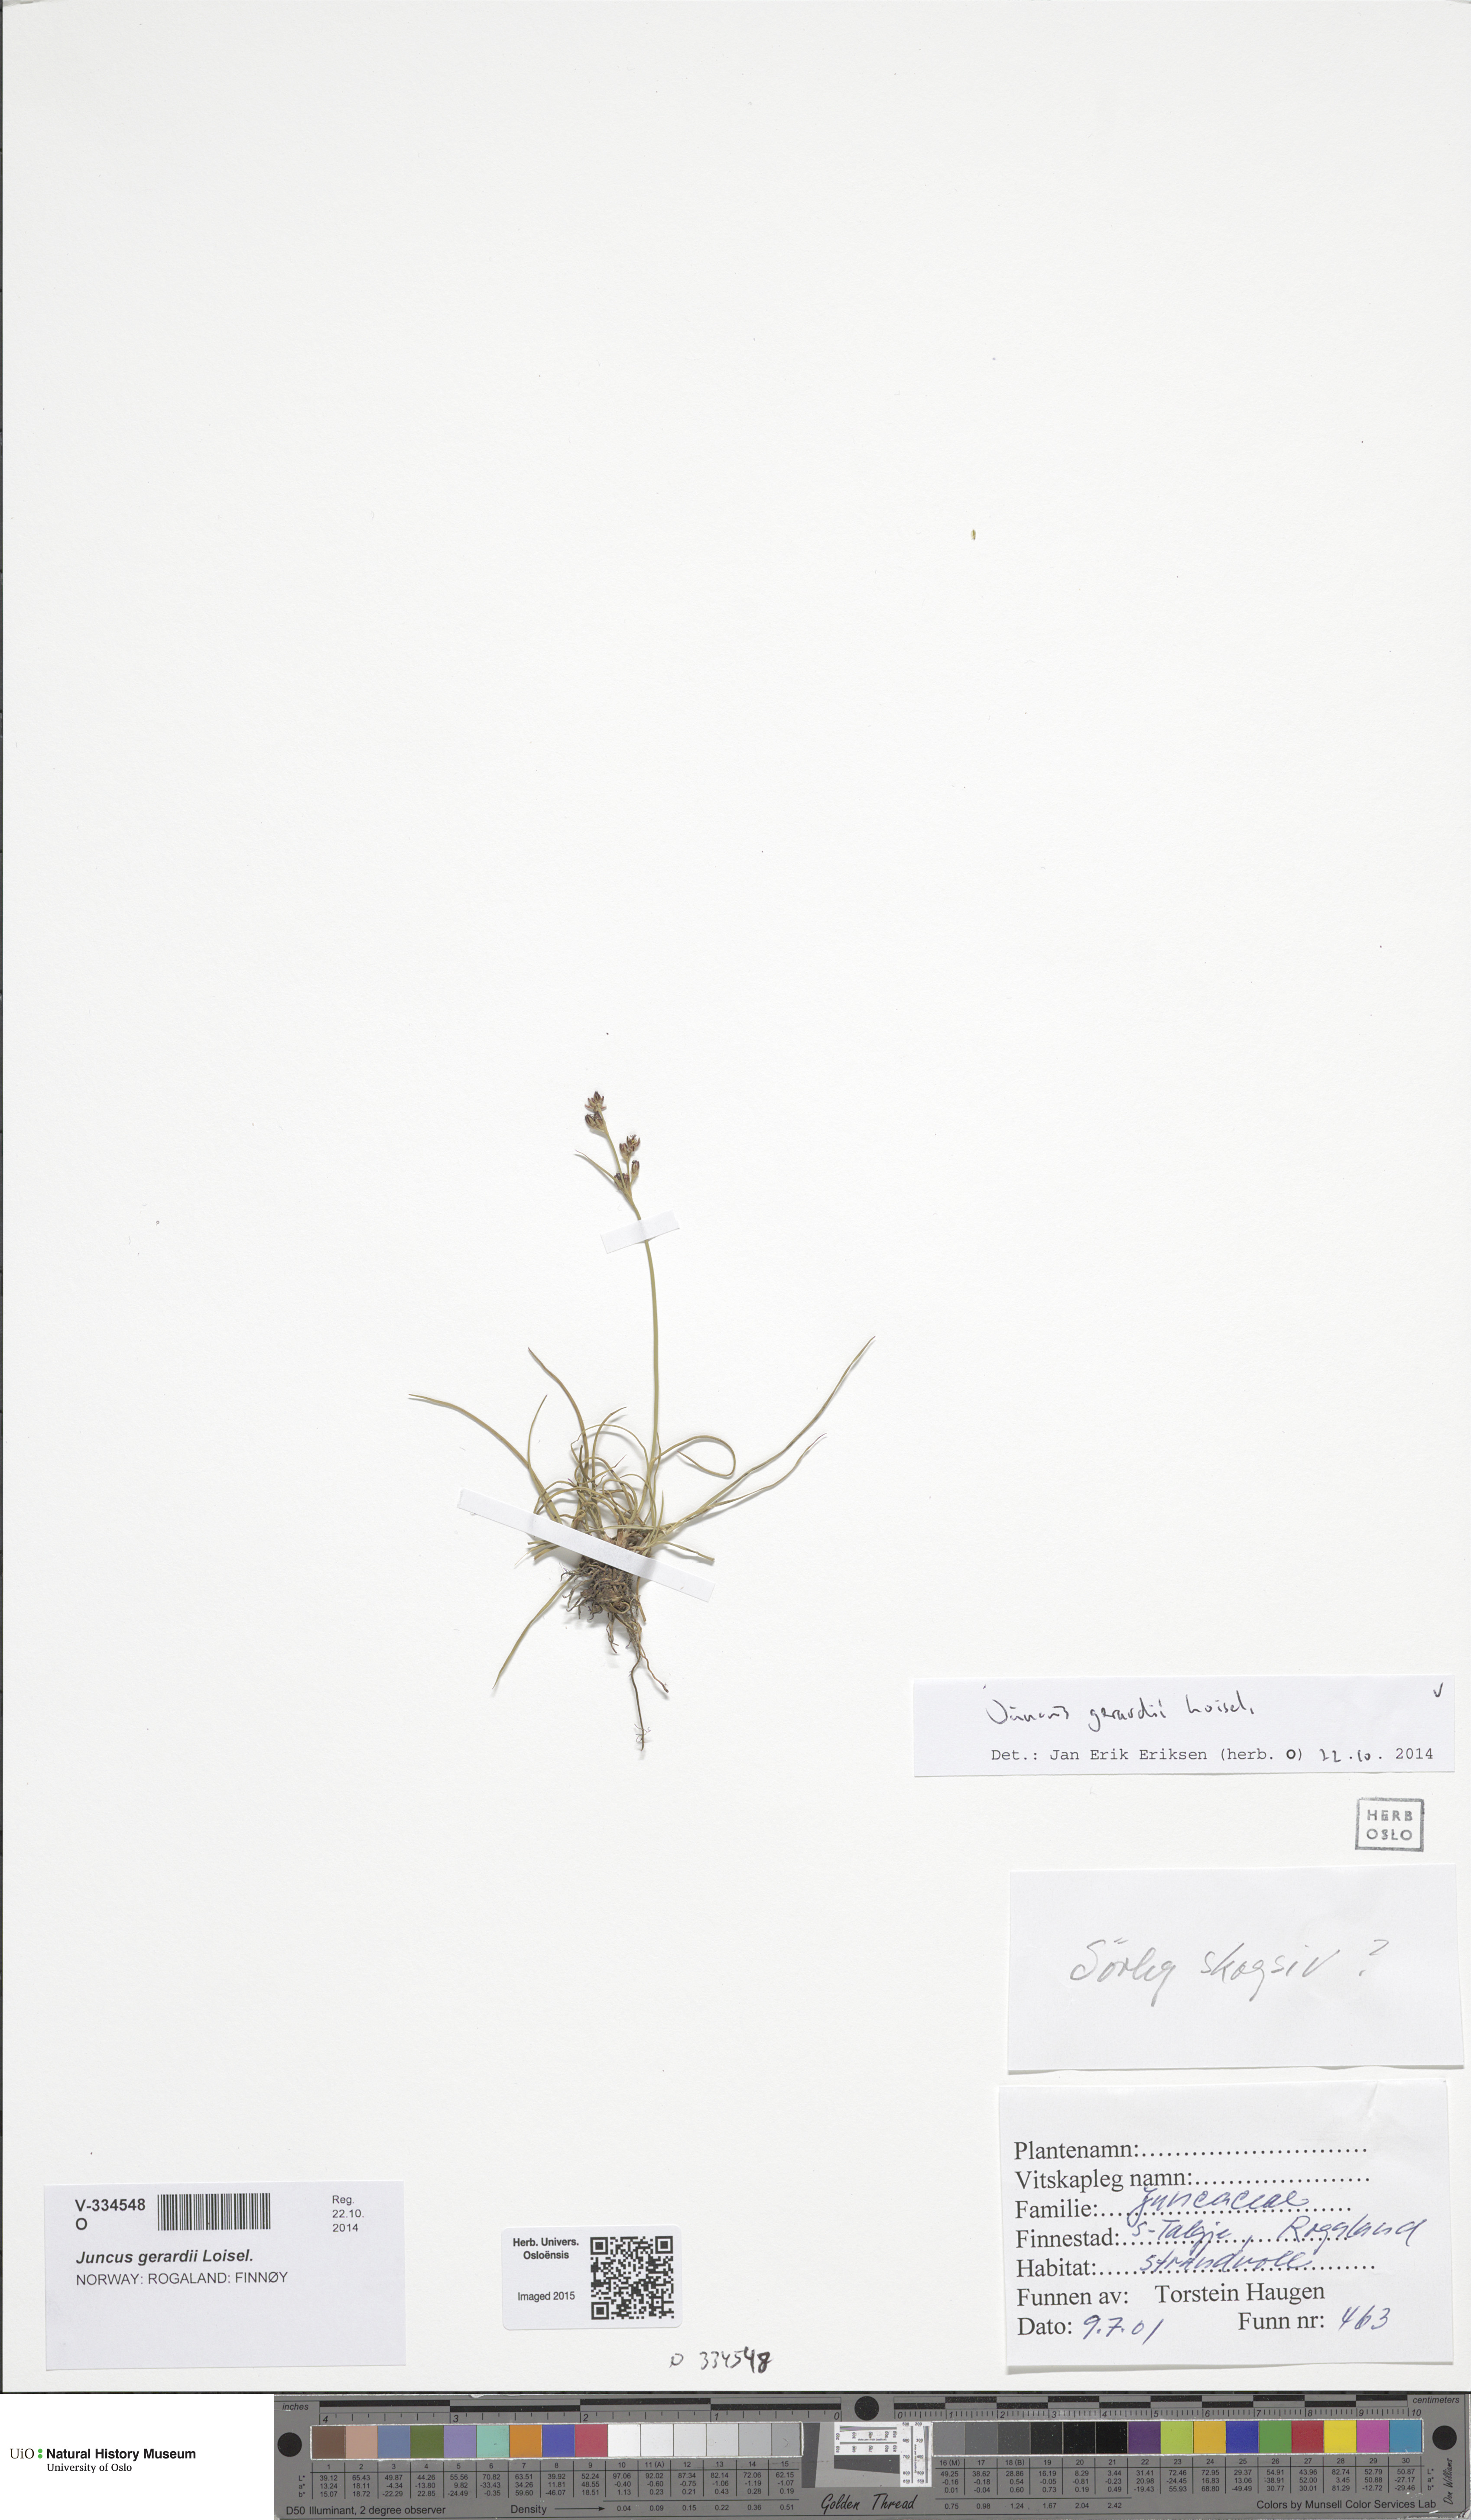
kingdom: Plantae
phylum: Tracheophyta
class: Liliopsida
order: Poales
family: Juncaceae
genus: Juncus
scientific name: Juncus gerardi
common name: Saltmarsh rush
